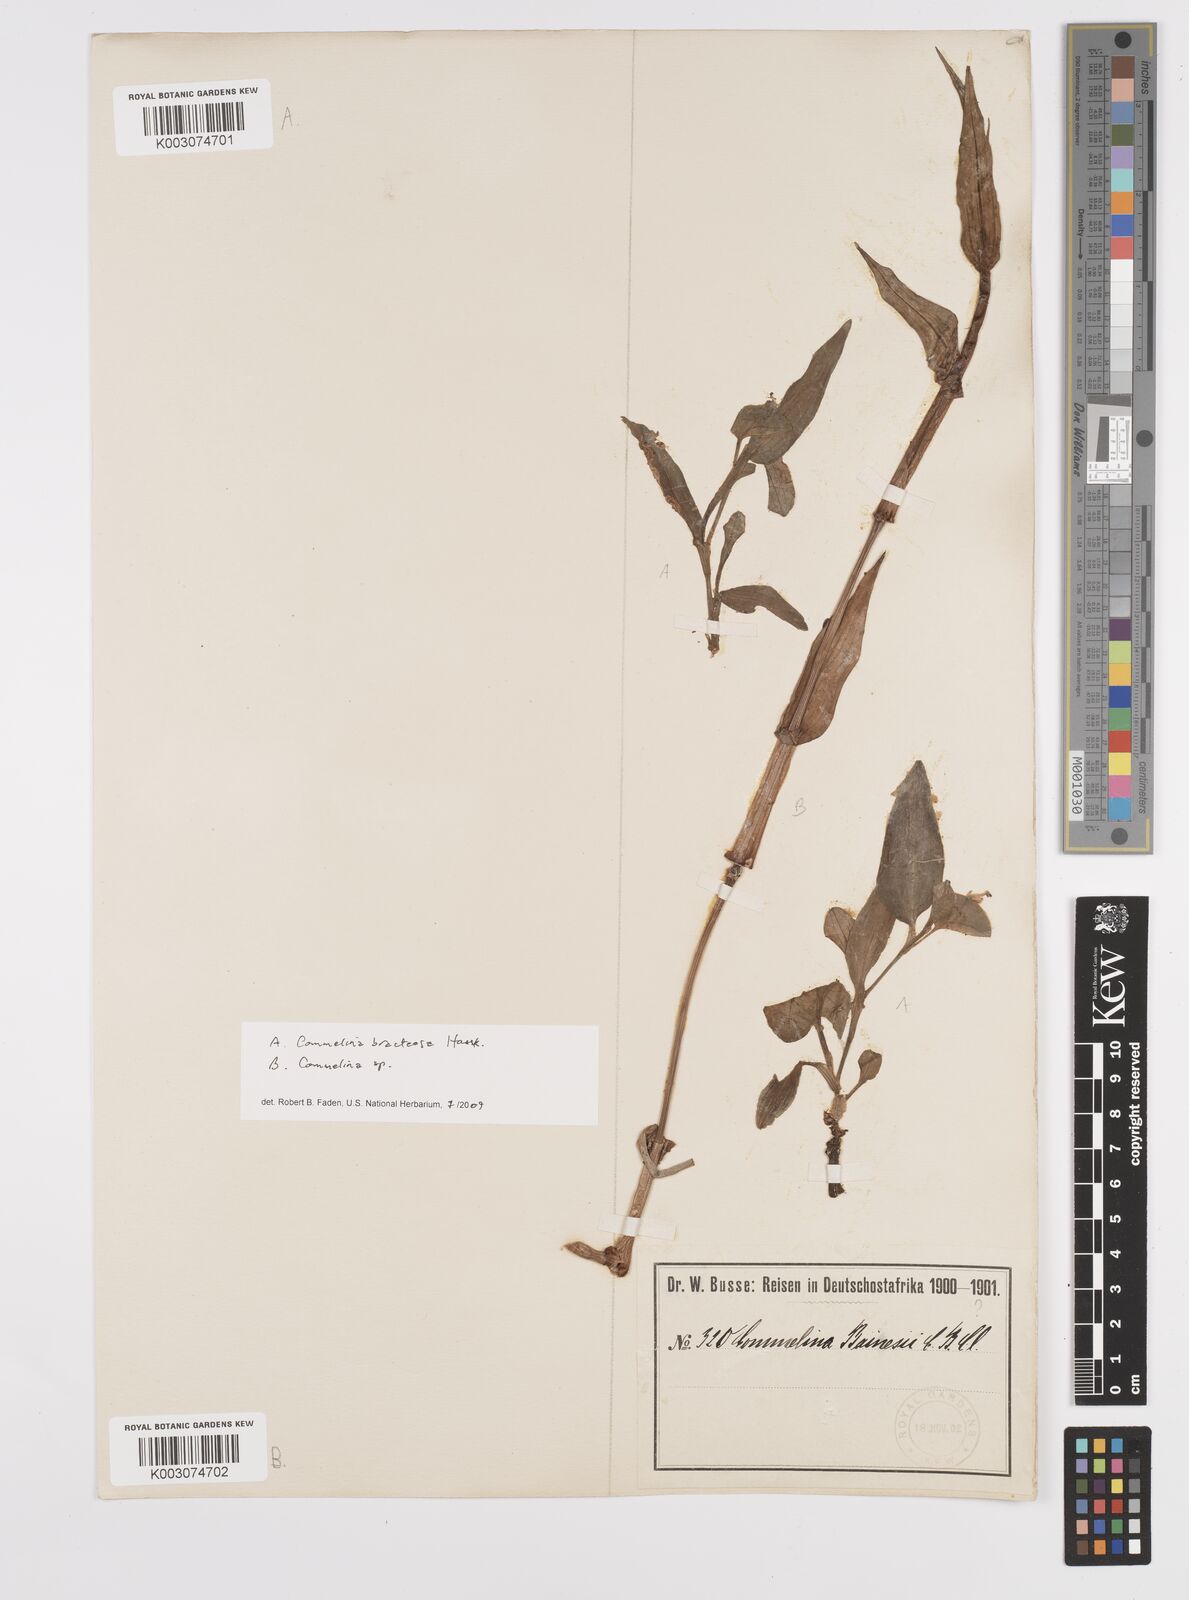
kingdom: Plantae
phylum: Tracheophyta
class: Liliopsida
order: Commelinales
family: Commelinaceae
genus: Commelina
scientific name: Commelina bracteosa
